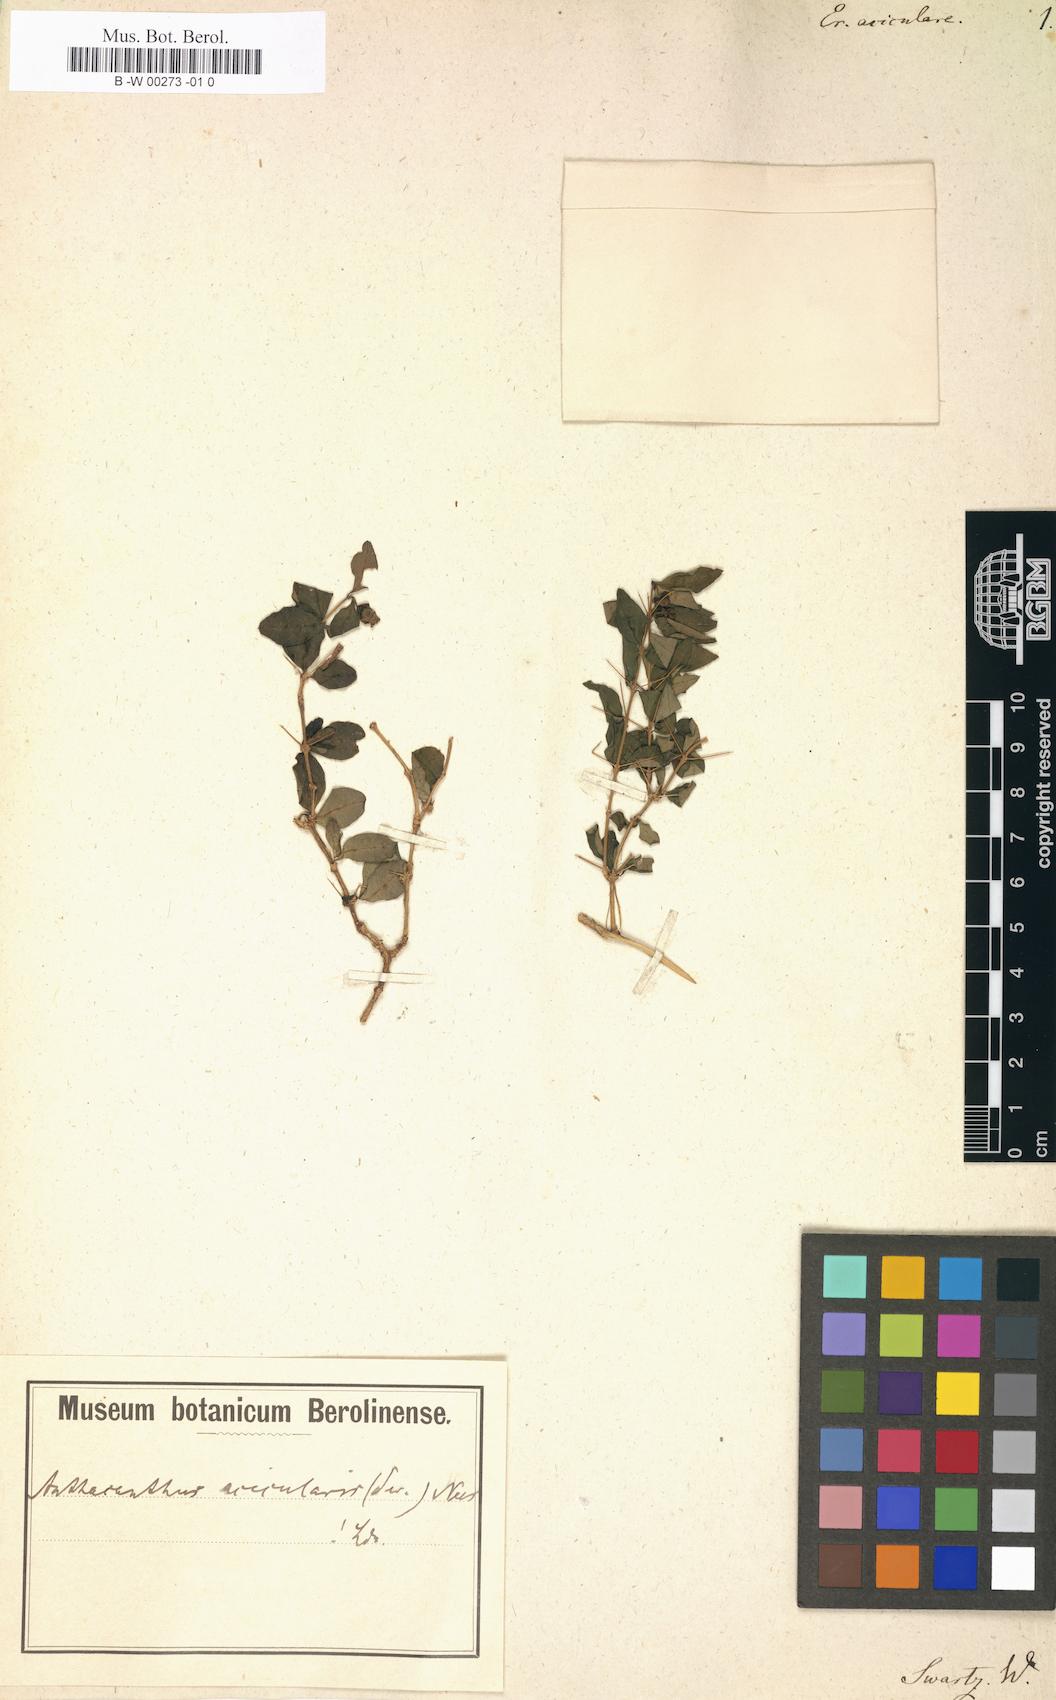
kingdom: Plantae
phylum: Tracheophyta
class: Magnoliopsida
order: Lamiales
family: Acanthaceae
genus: Oplonia
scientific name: Oplonia acicularis
